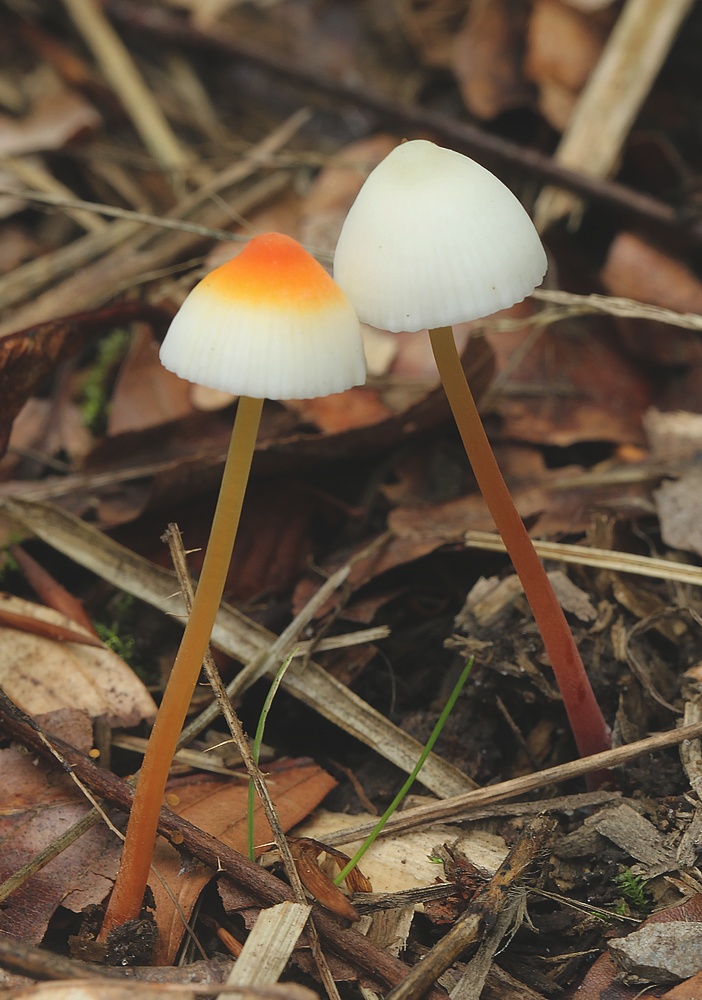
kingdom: Fungi
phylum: Basidiomycota
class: Agaricomycetes
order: Agaricales
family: Mycenaceae
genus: Mycena
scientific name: Mycena crocata
